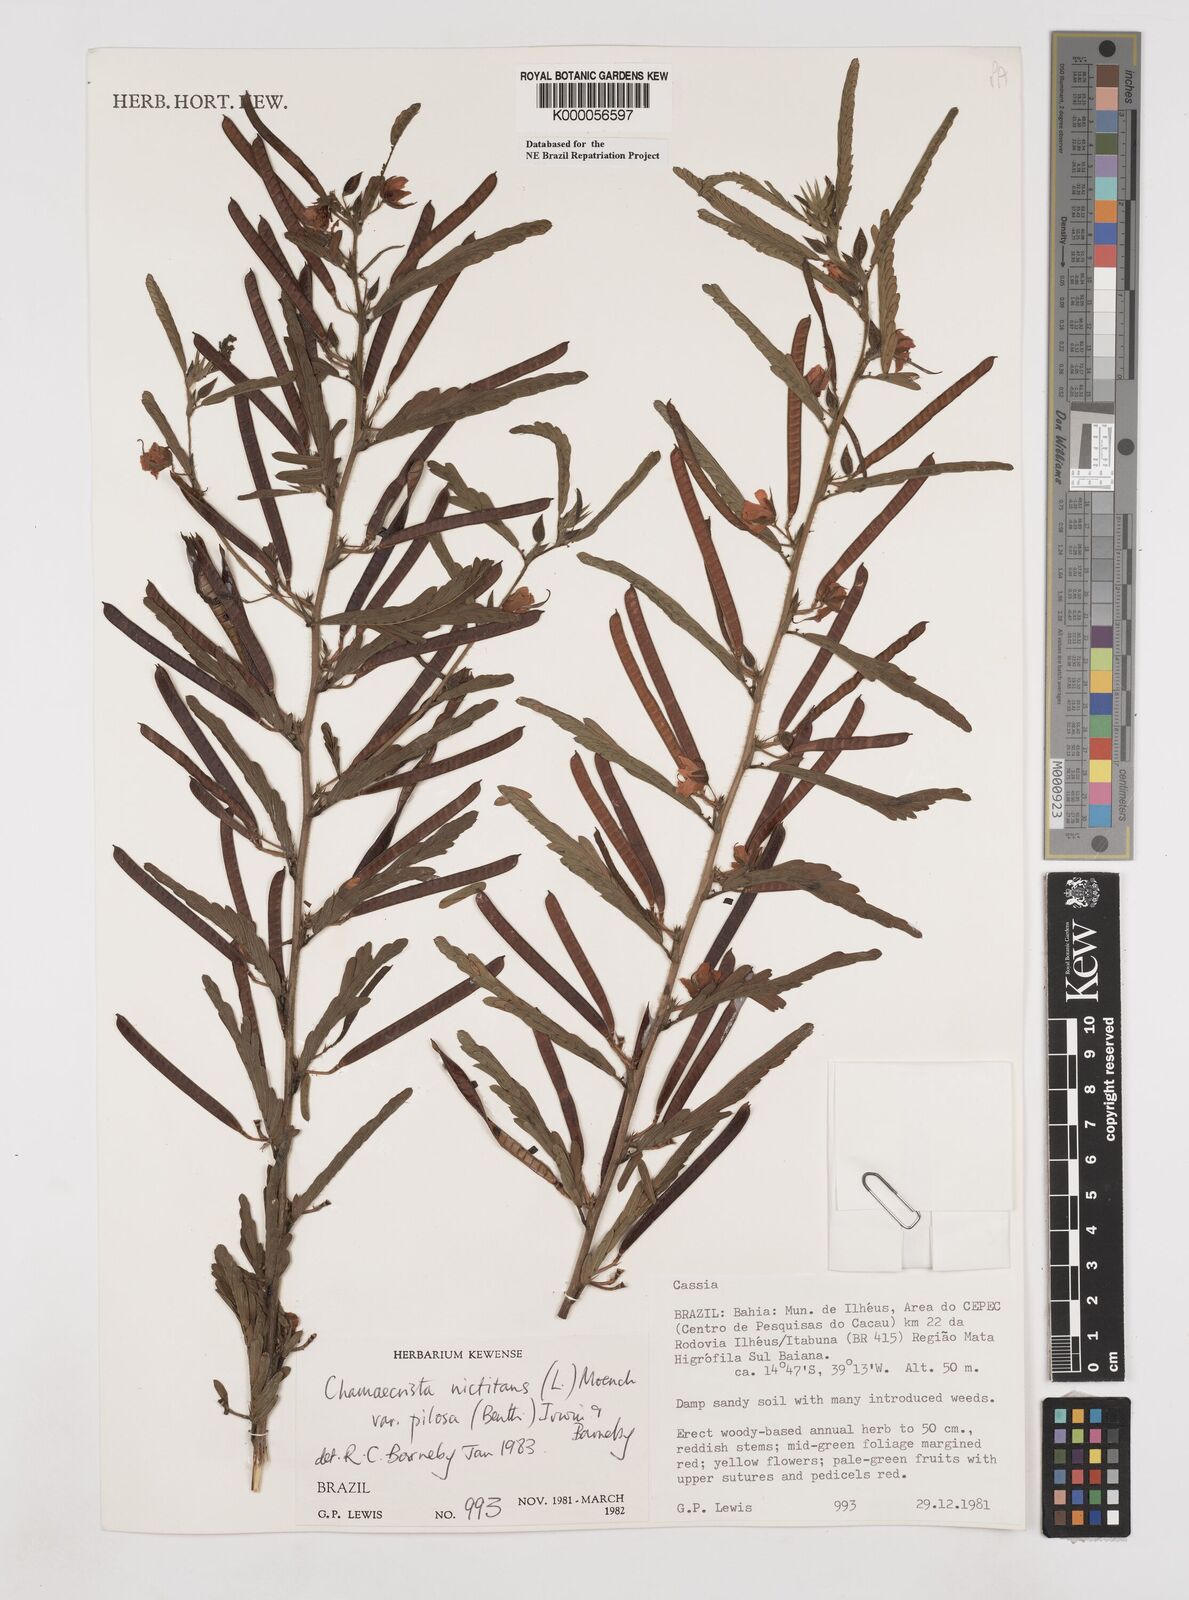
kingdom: Plantae
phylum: Tracheophyta
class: Magnoliopsida
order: Fabales
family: Fabaceae
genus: Chamaecrista
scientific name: Chamaecrista nictitans
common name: Sensitive cassia
